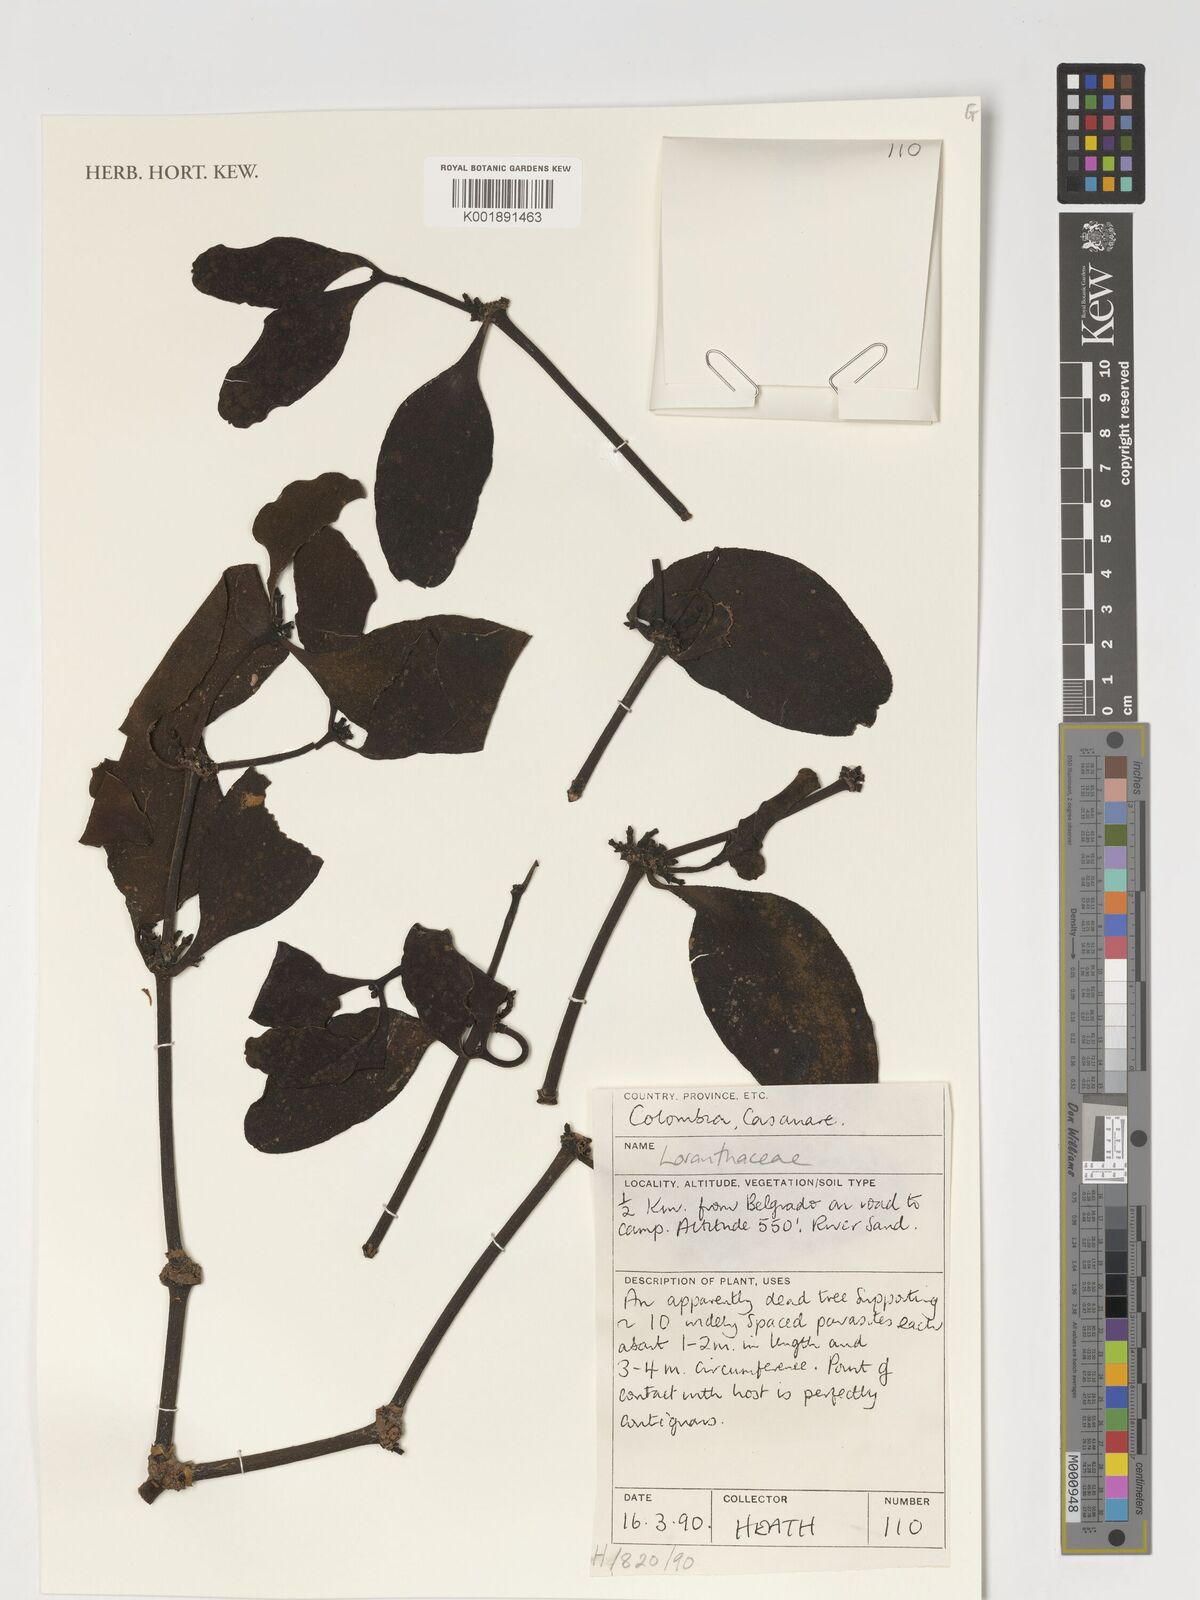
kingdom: Plantae
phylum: Tracheophyta
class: Magnoliopsida
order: Santalales
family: Loranthaceae
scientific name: Loranthaceae
